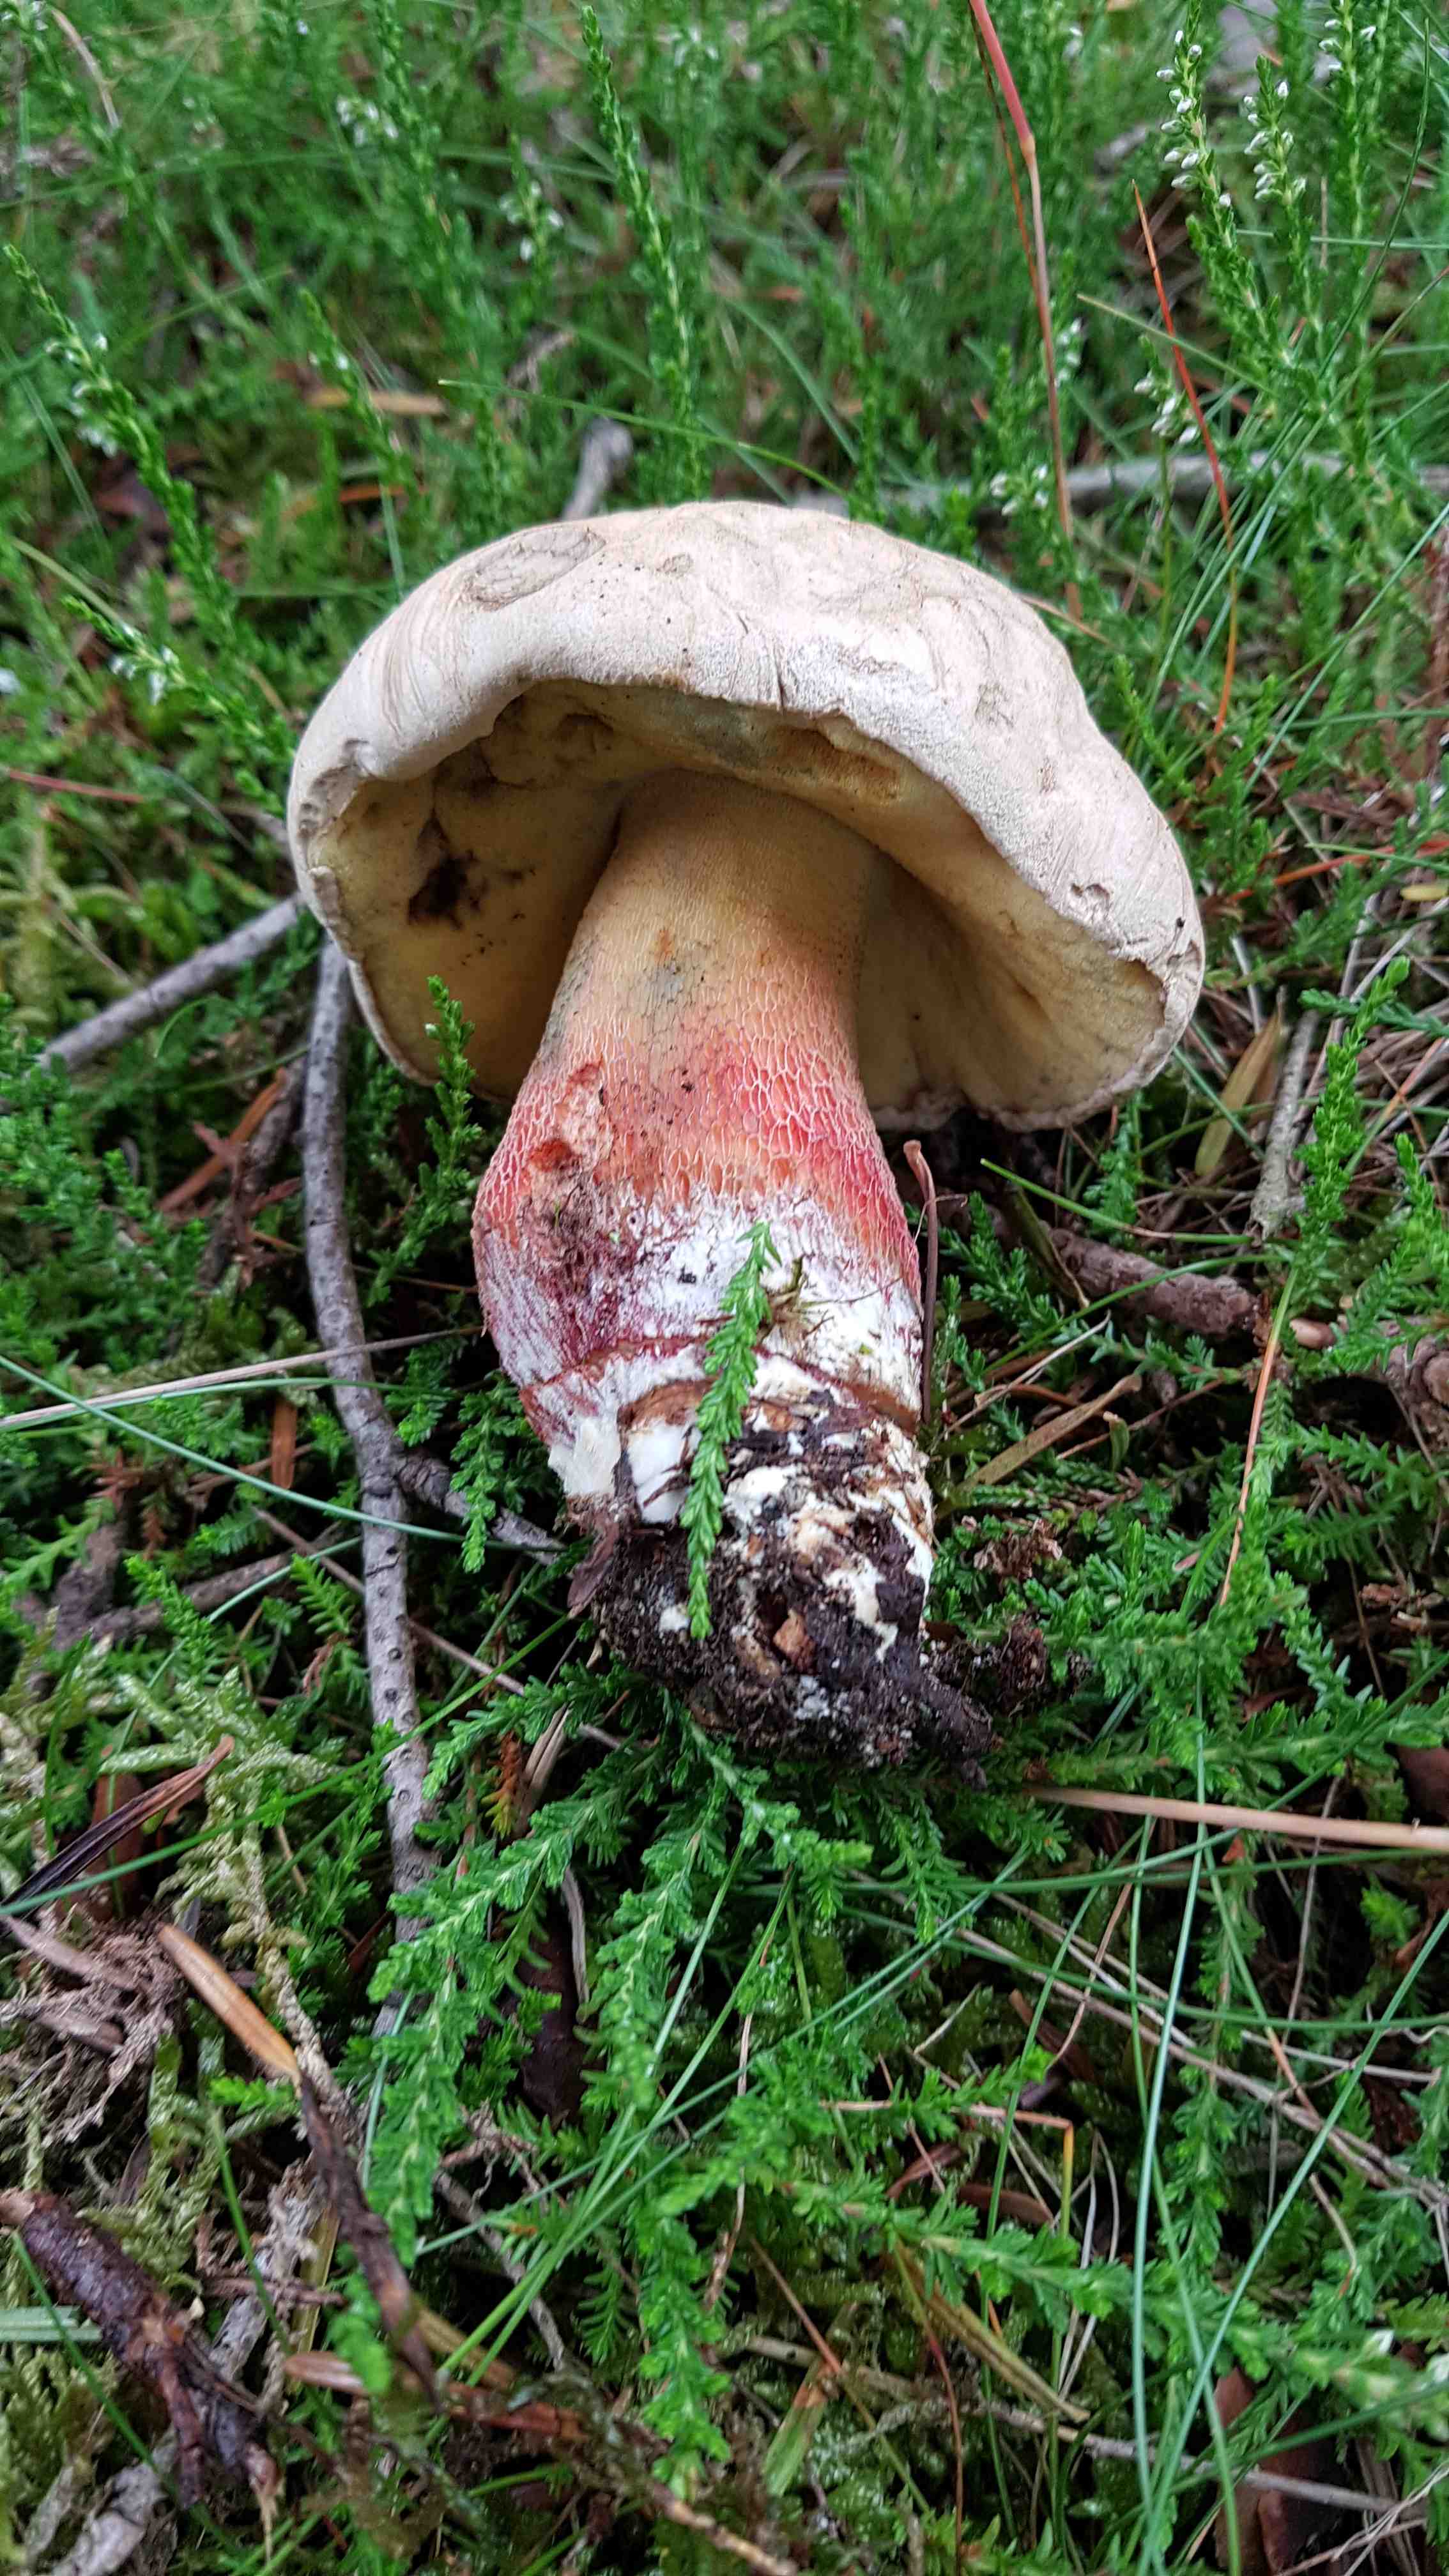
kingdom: Fungi
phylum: Basidiomycota
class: Agaricomycetes
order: Boletales
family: Boletaceae
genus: Caloboletus
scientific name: Caloboletus calopus
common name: skønfodet rørhat
